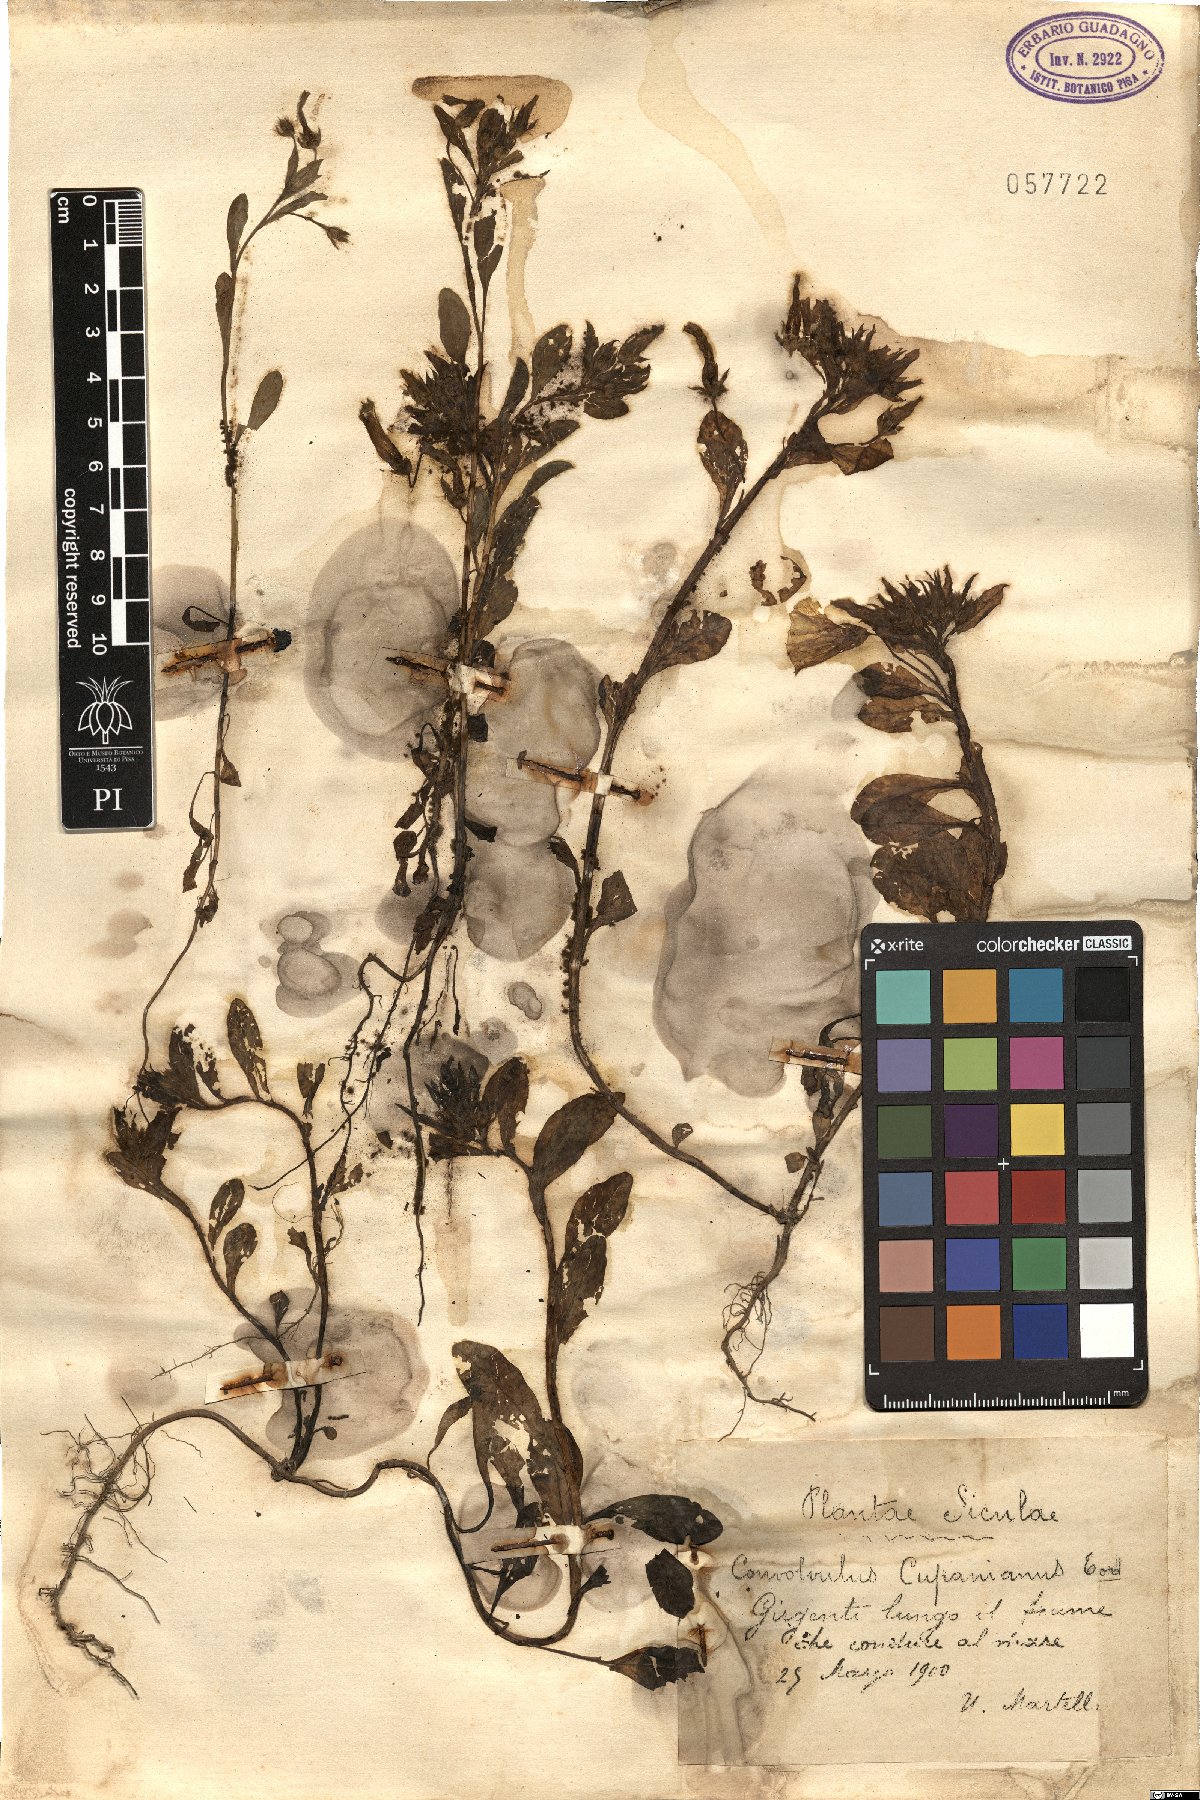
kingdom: Plantae
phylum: Tracheophyta
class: Magnoliopsida
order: Solanales
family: Convolvulaceae
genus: Convolvulus
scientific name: Convolvulus tricolor
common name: Dwarf morning-glory
